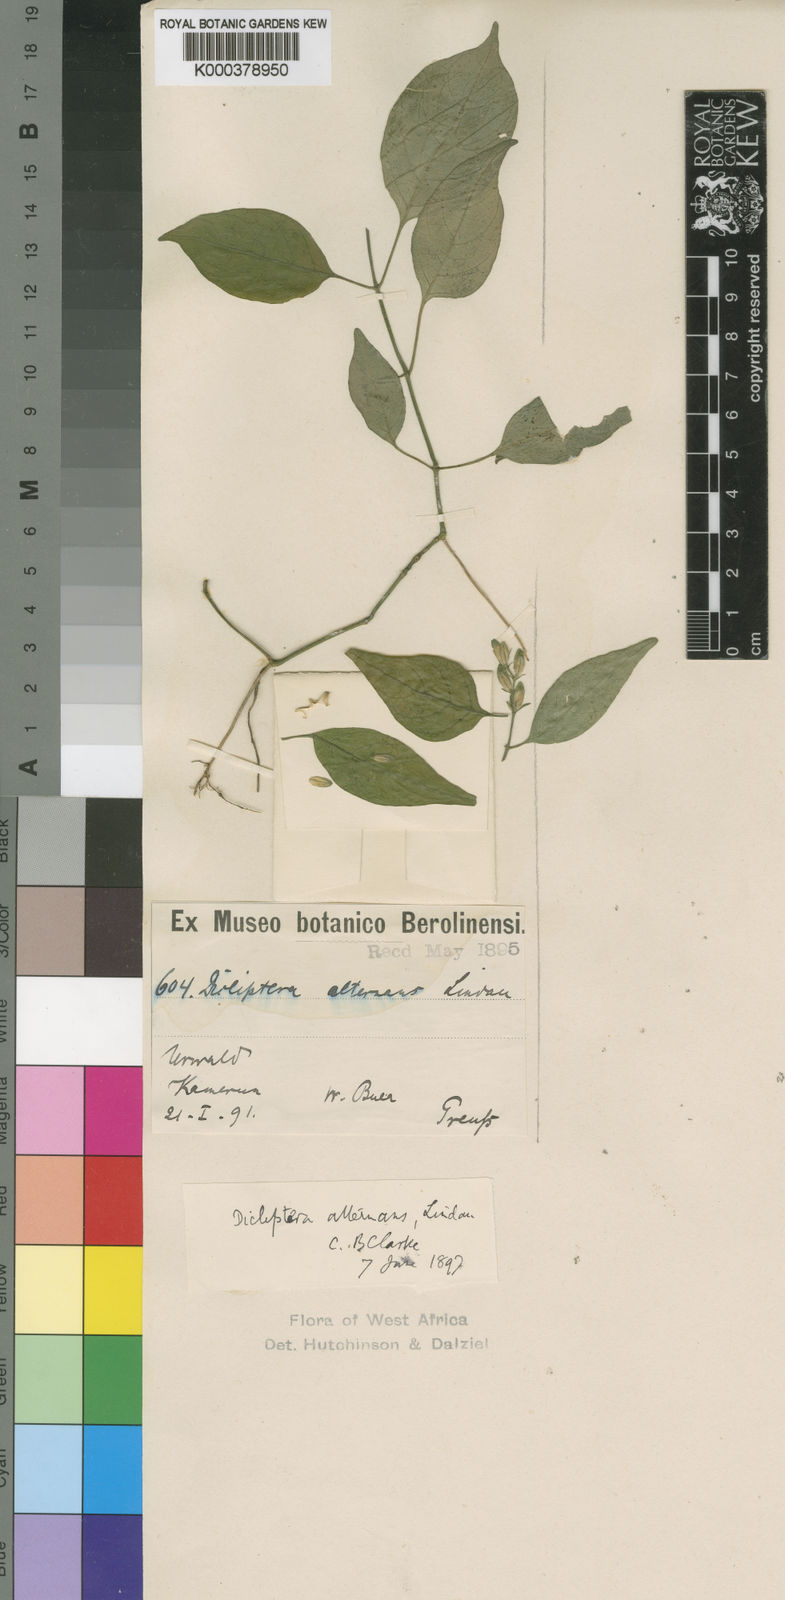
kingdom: Plantae
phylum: Tracheophyta
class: Magnoliopsida
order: Lamiales
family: Acanthaceae
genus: Dicliptera
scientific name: Dicliptera alternans
